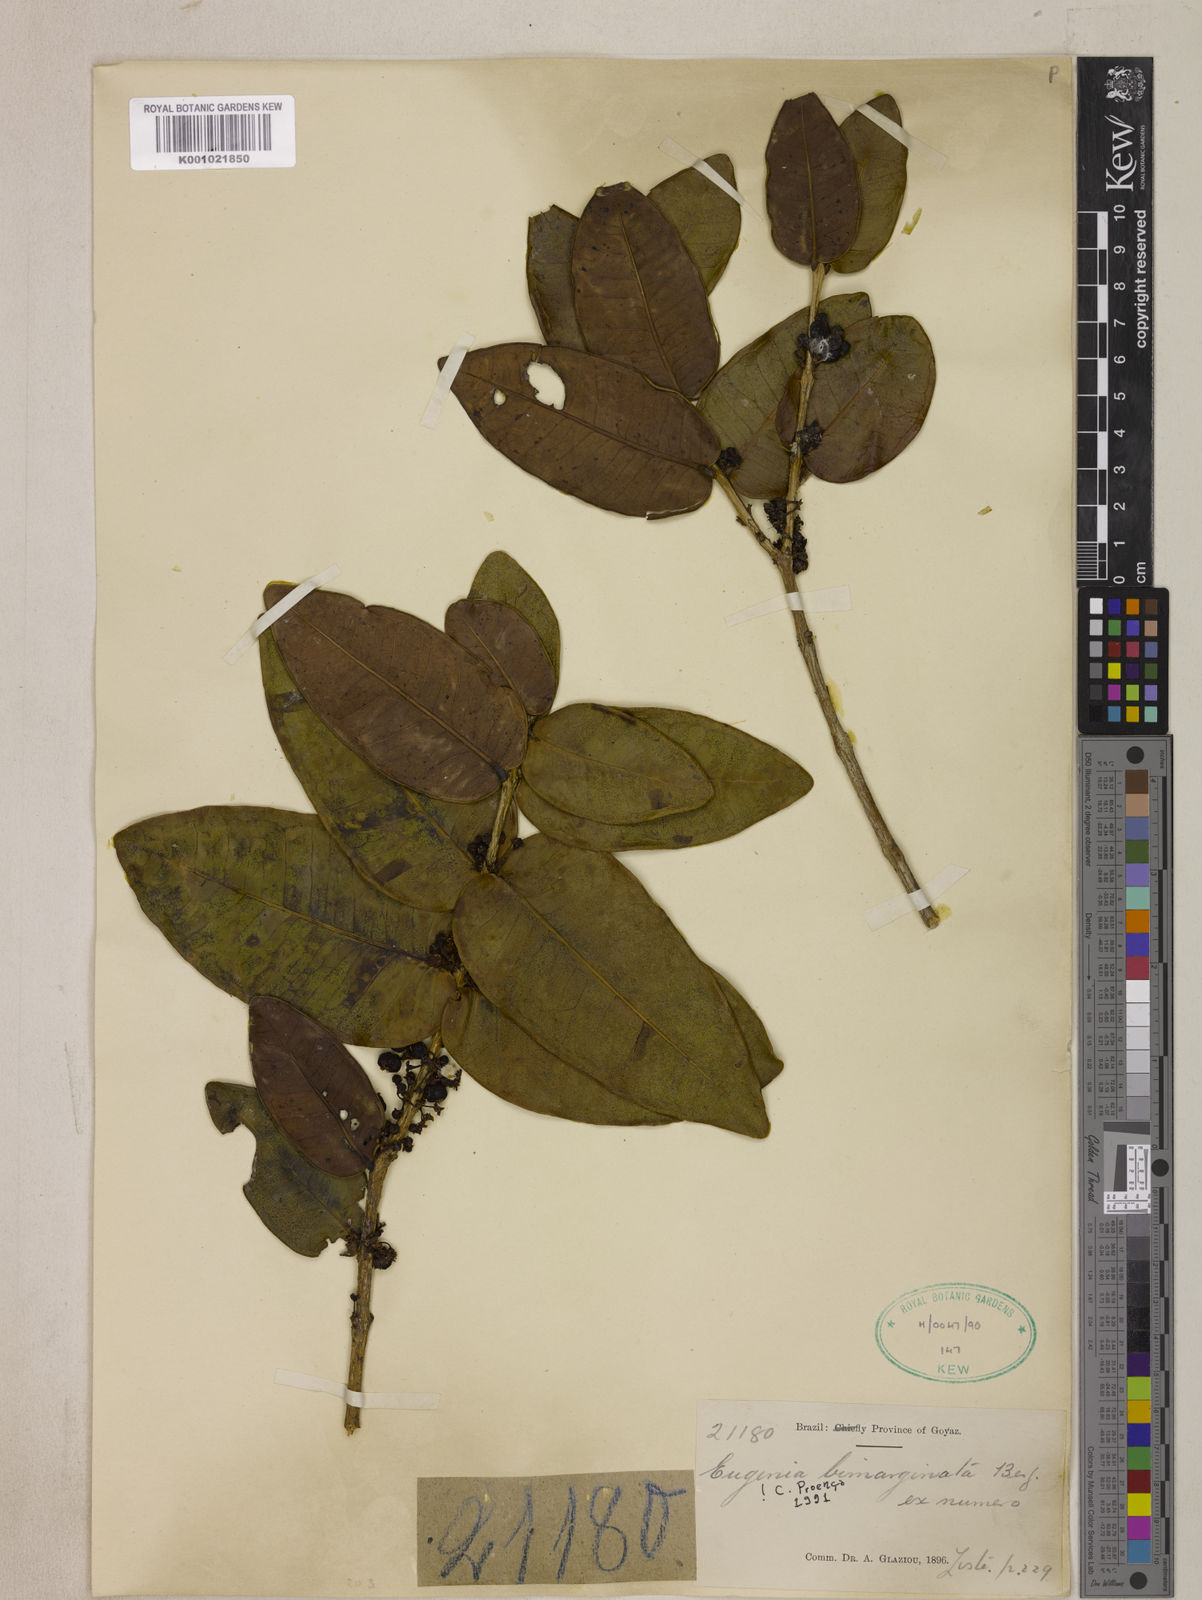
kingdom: Plantae
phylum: Tracheophyta
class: Magnoliopsida
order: Myrtales
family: Myrtaceae
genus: Eugenia
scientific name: Eugenia bimarginata
